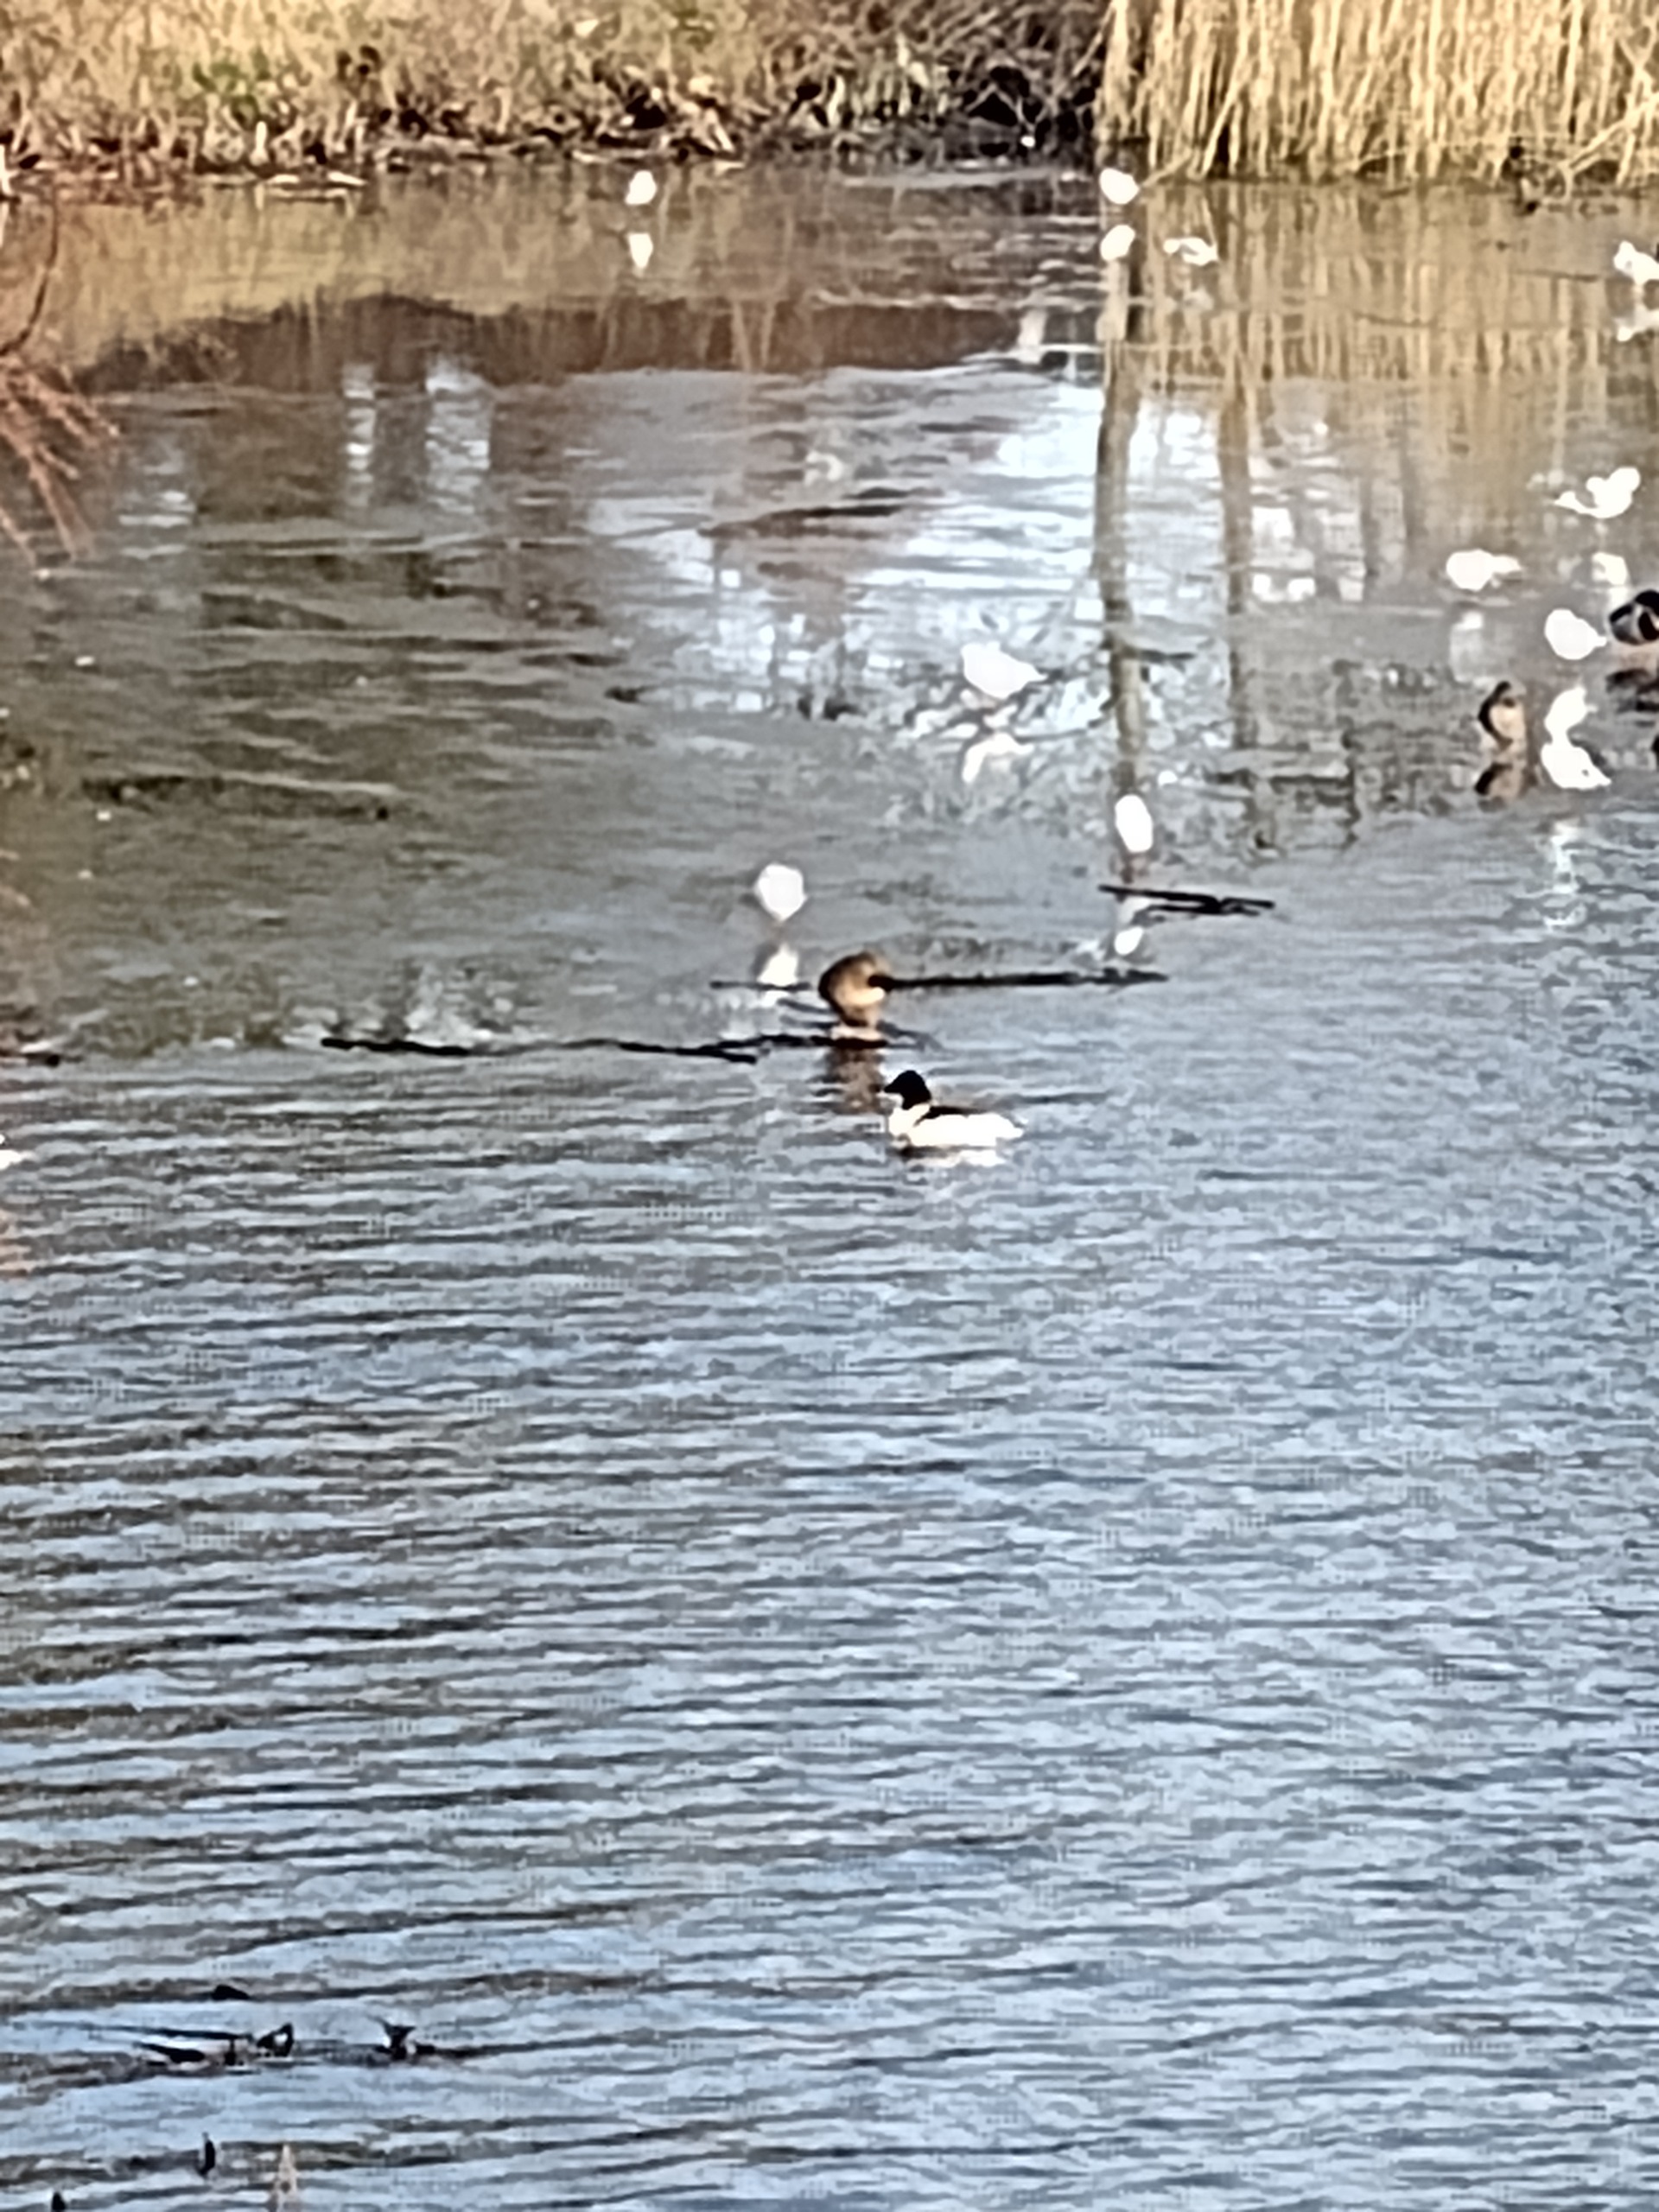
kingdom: Animalia
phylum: Chordata
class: Aves
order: Anseriformes
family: Anatidae
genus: Mergus
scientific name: Mergus merganser
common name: Stor skallesluger
